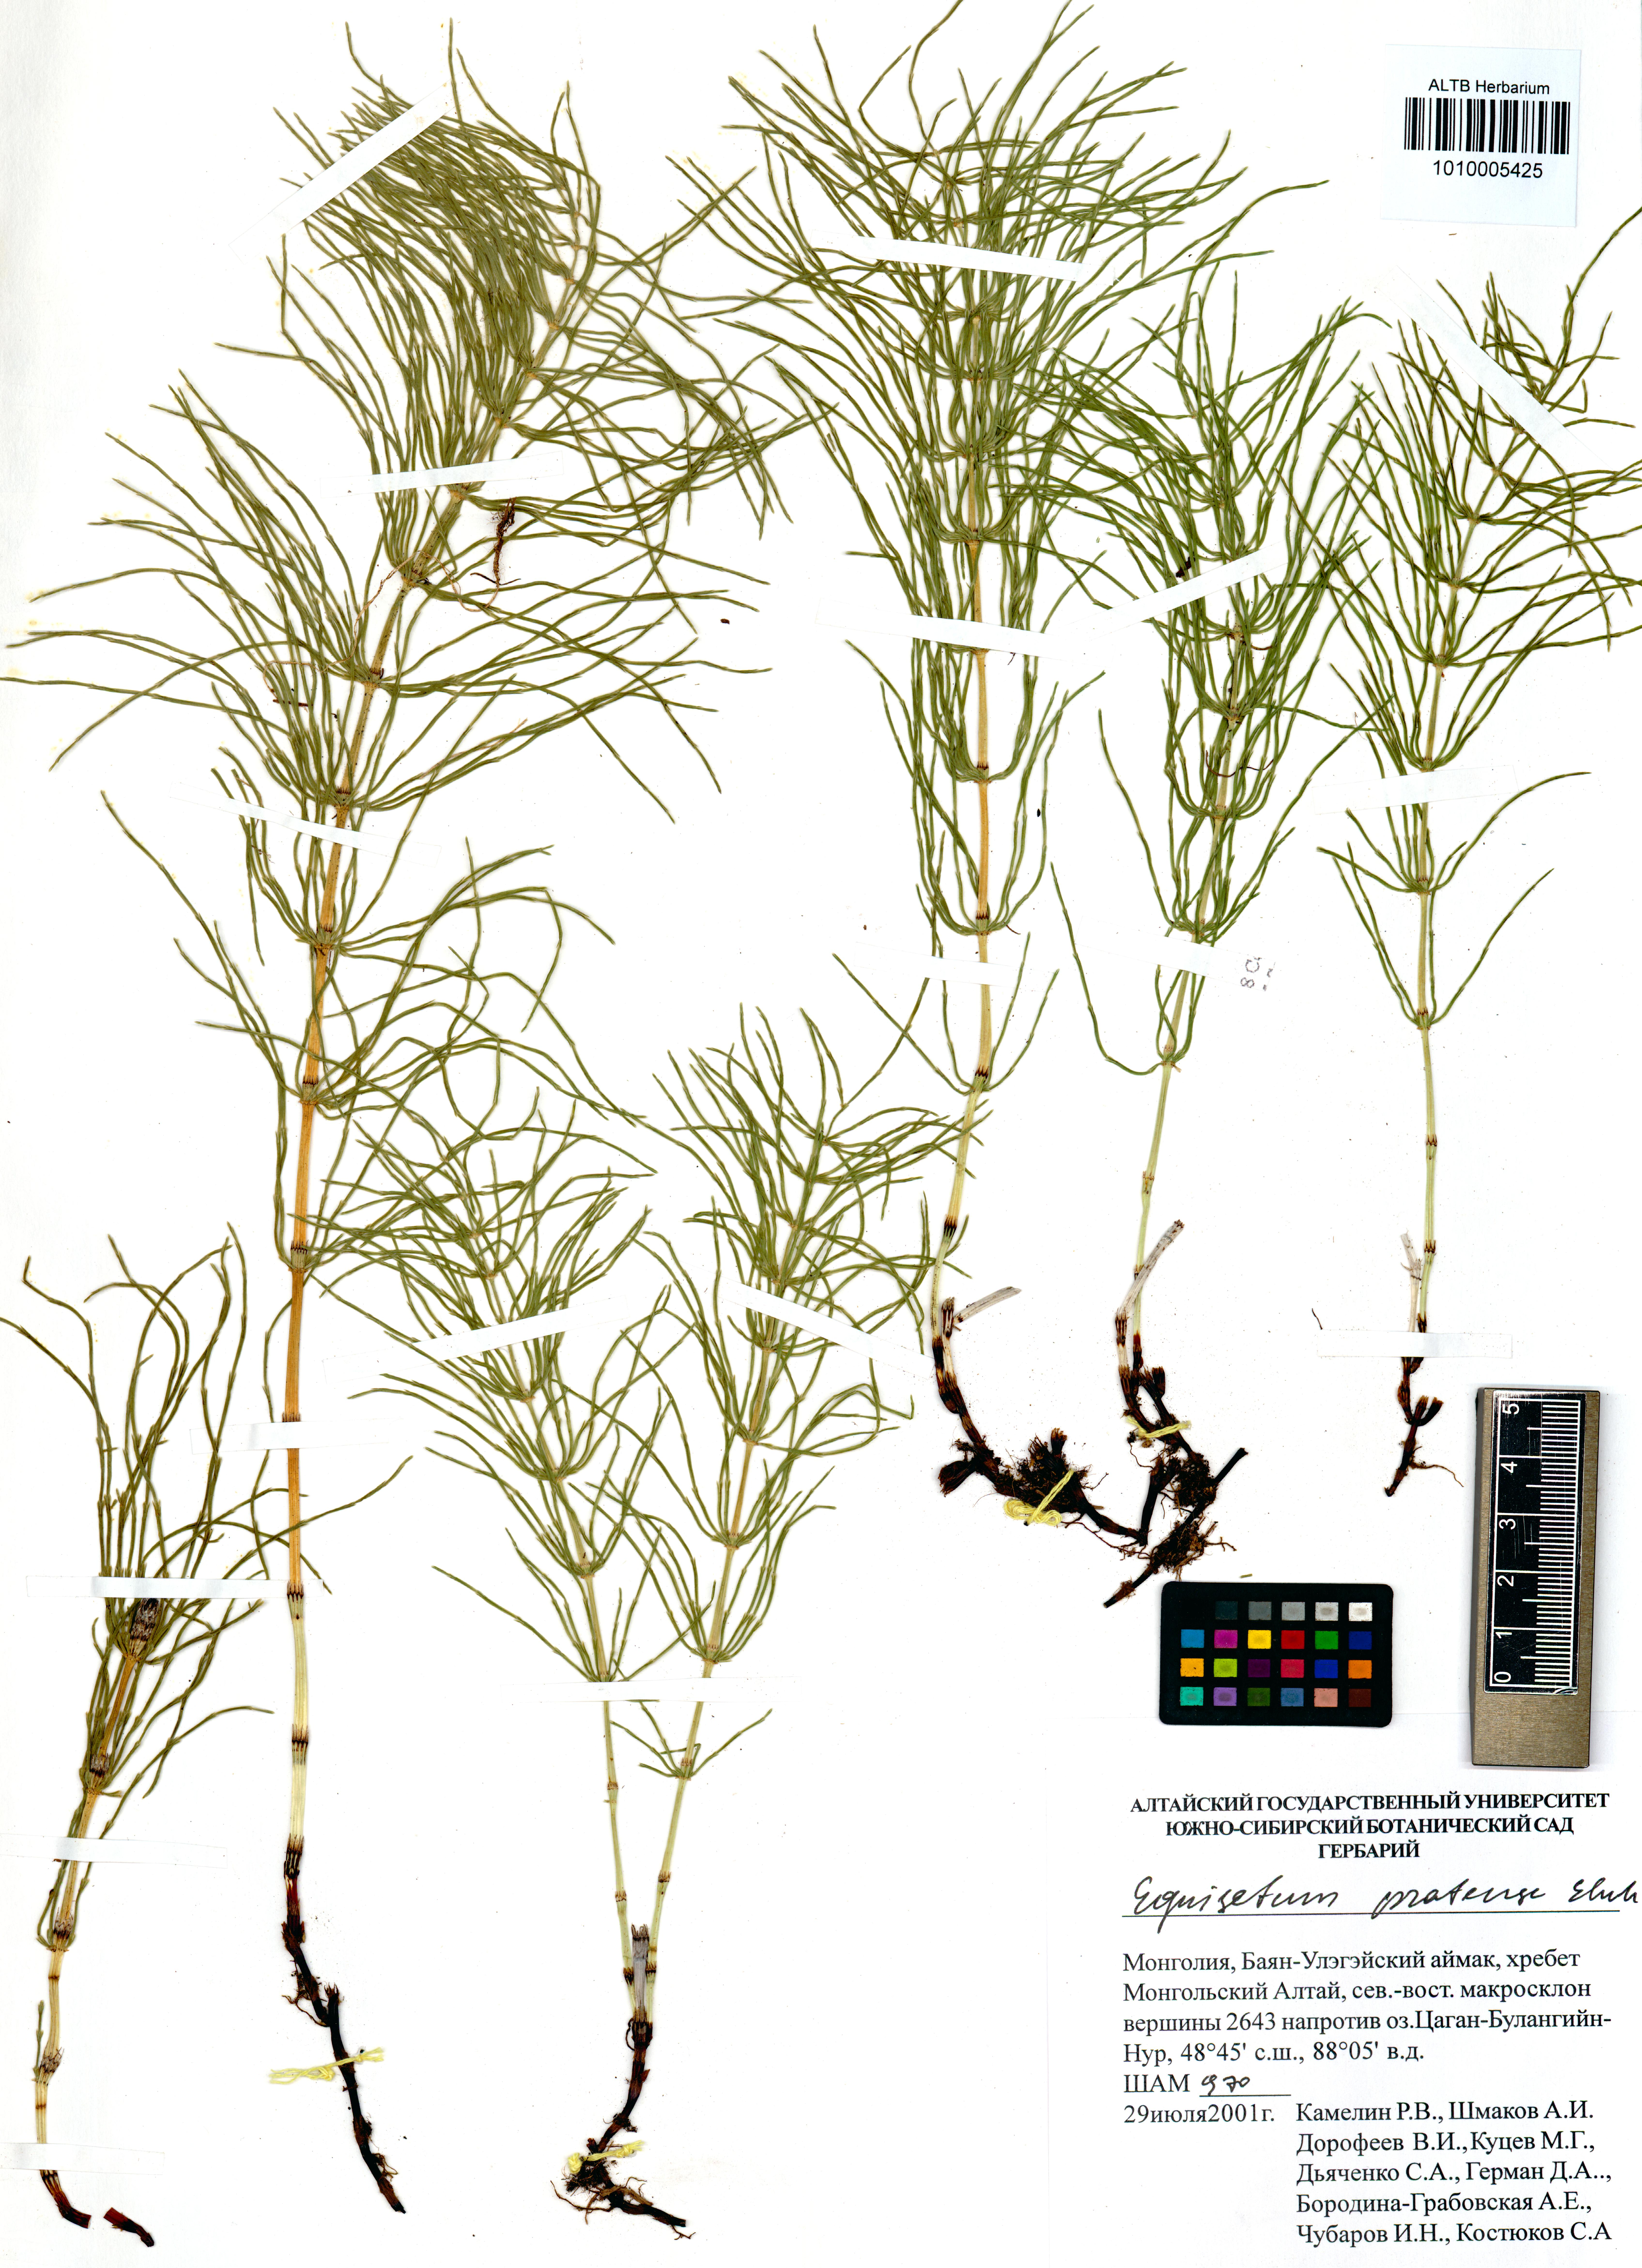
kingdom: Plantae
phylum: Tracheophyta
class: Polypodiopsida
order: Equisetales
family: Equisetaceae
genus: Equisetum
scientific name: Equisetum pratense
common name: Meadow horsetail
